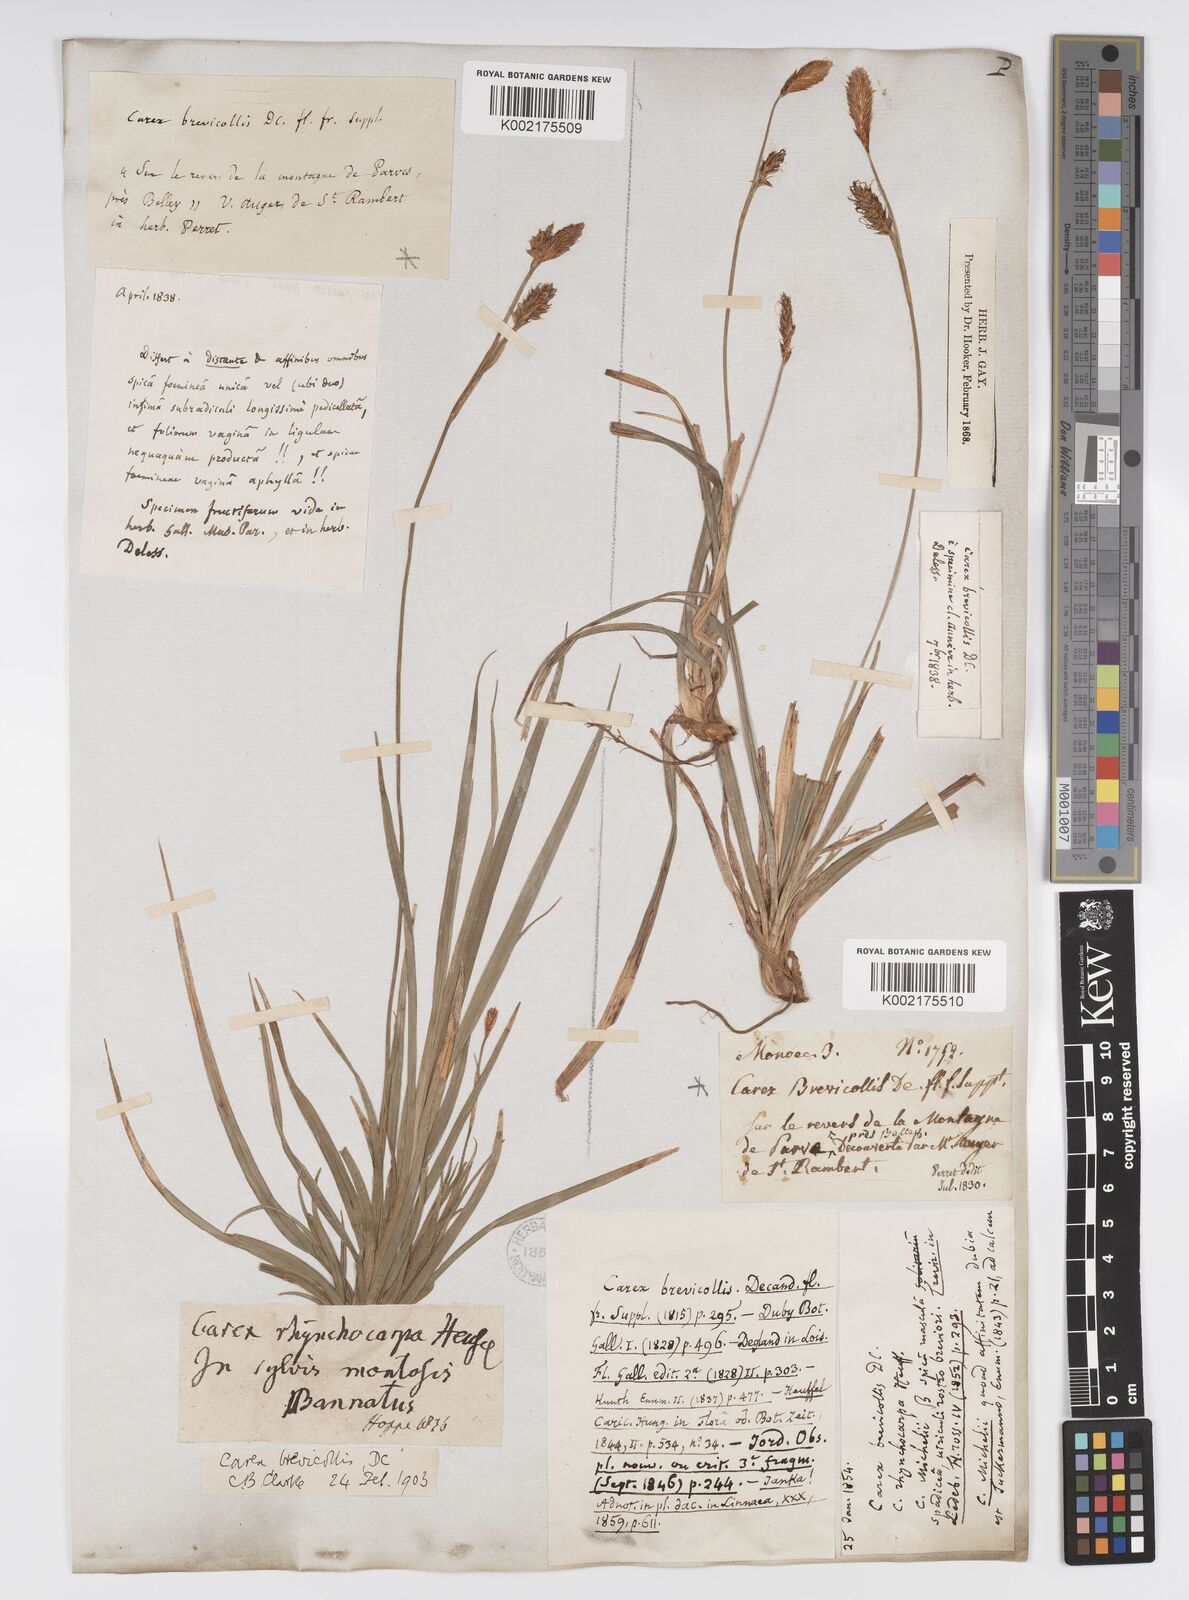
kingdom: Plantae
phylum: Tracheophyta
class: Liliopsida
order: Poales
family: Cyperaceae
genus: Carex
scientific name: Carex brevicollis
